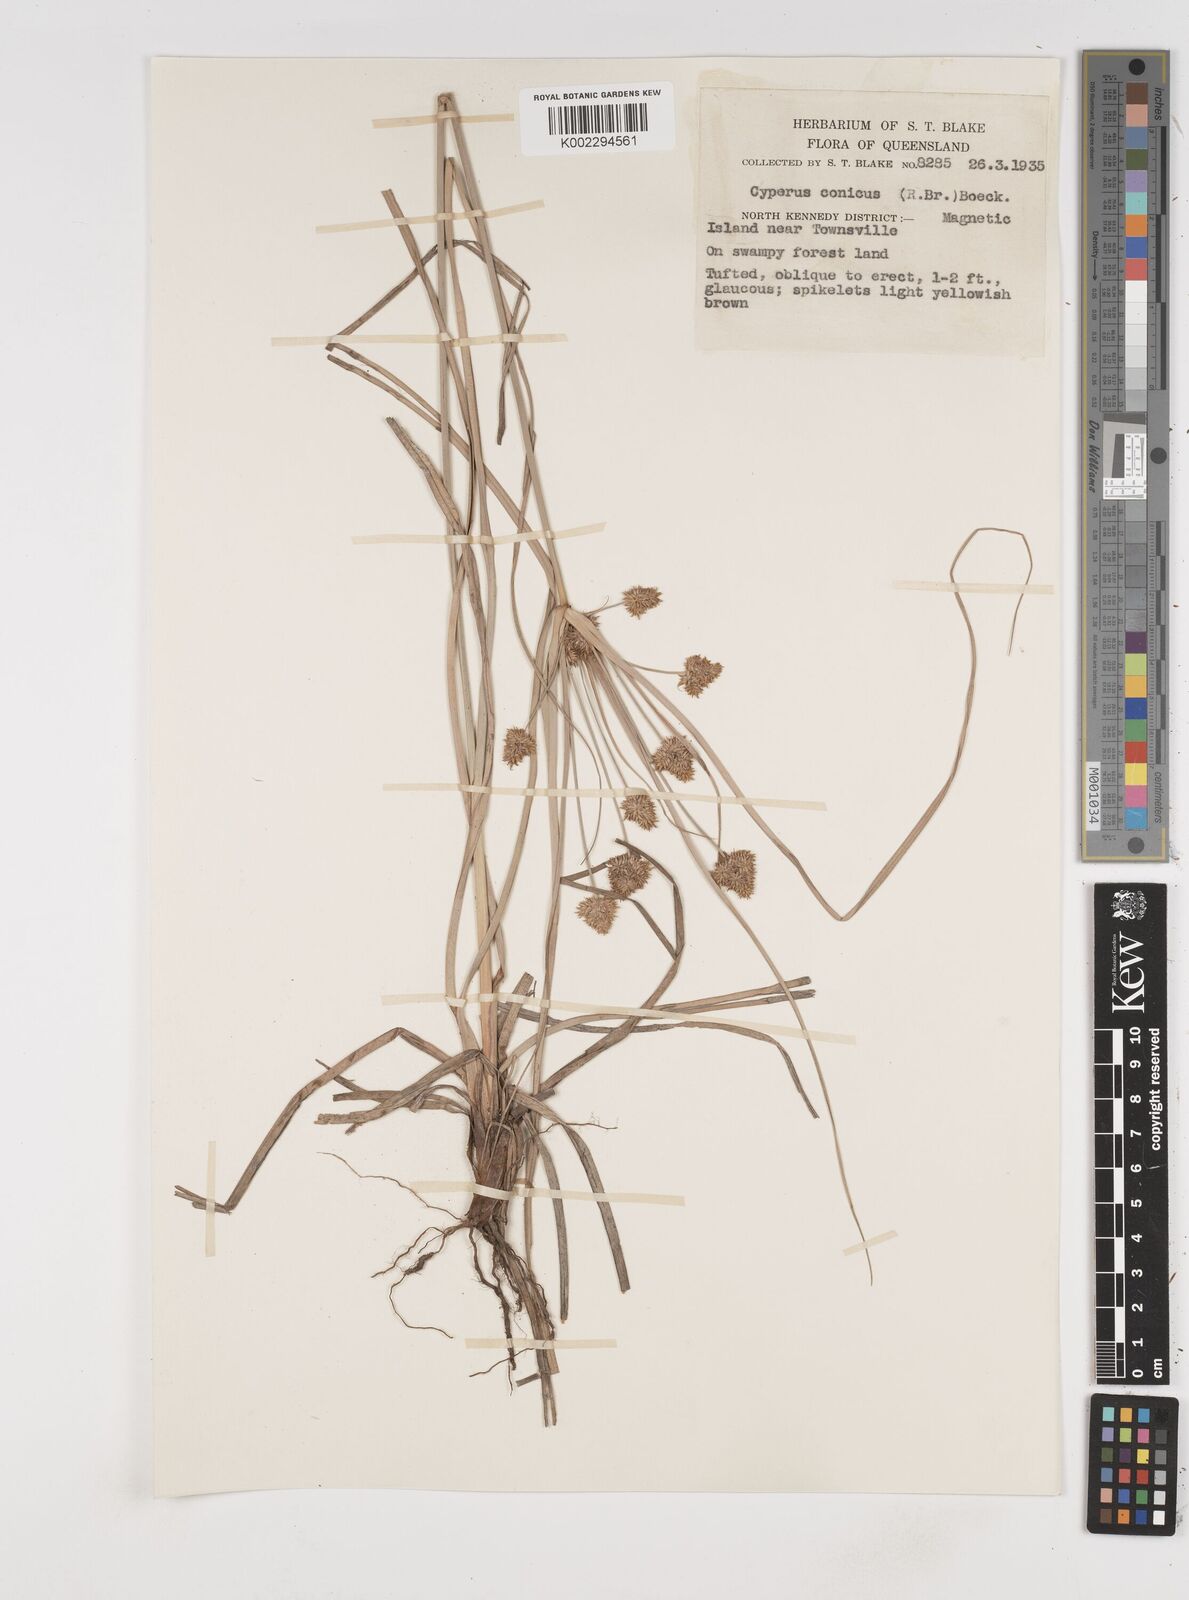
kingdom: Plantae
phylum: Tracheophyta
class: Liliopsida
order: Poales
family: Cyperaceae
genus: Cyperus
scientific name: Cyperus conicus
